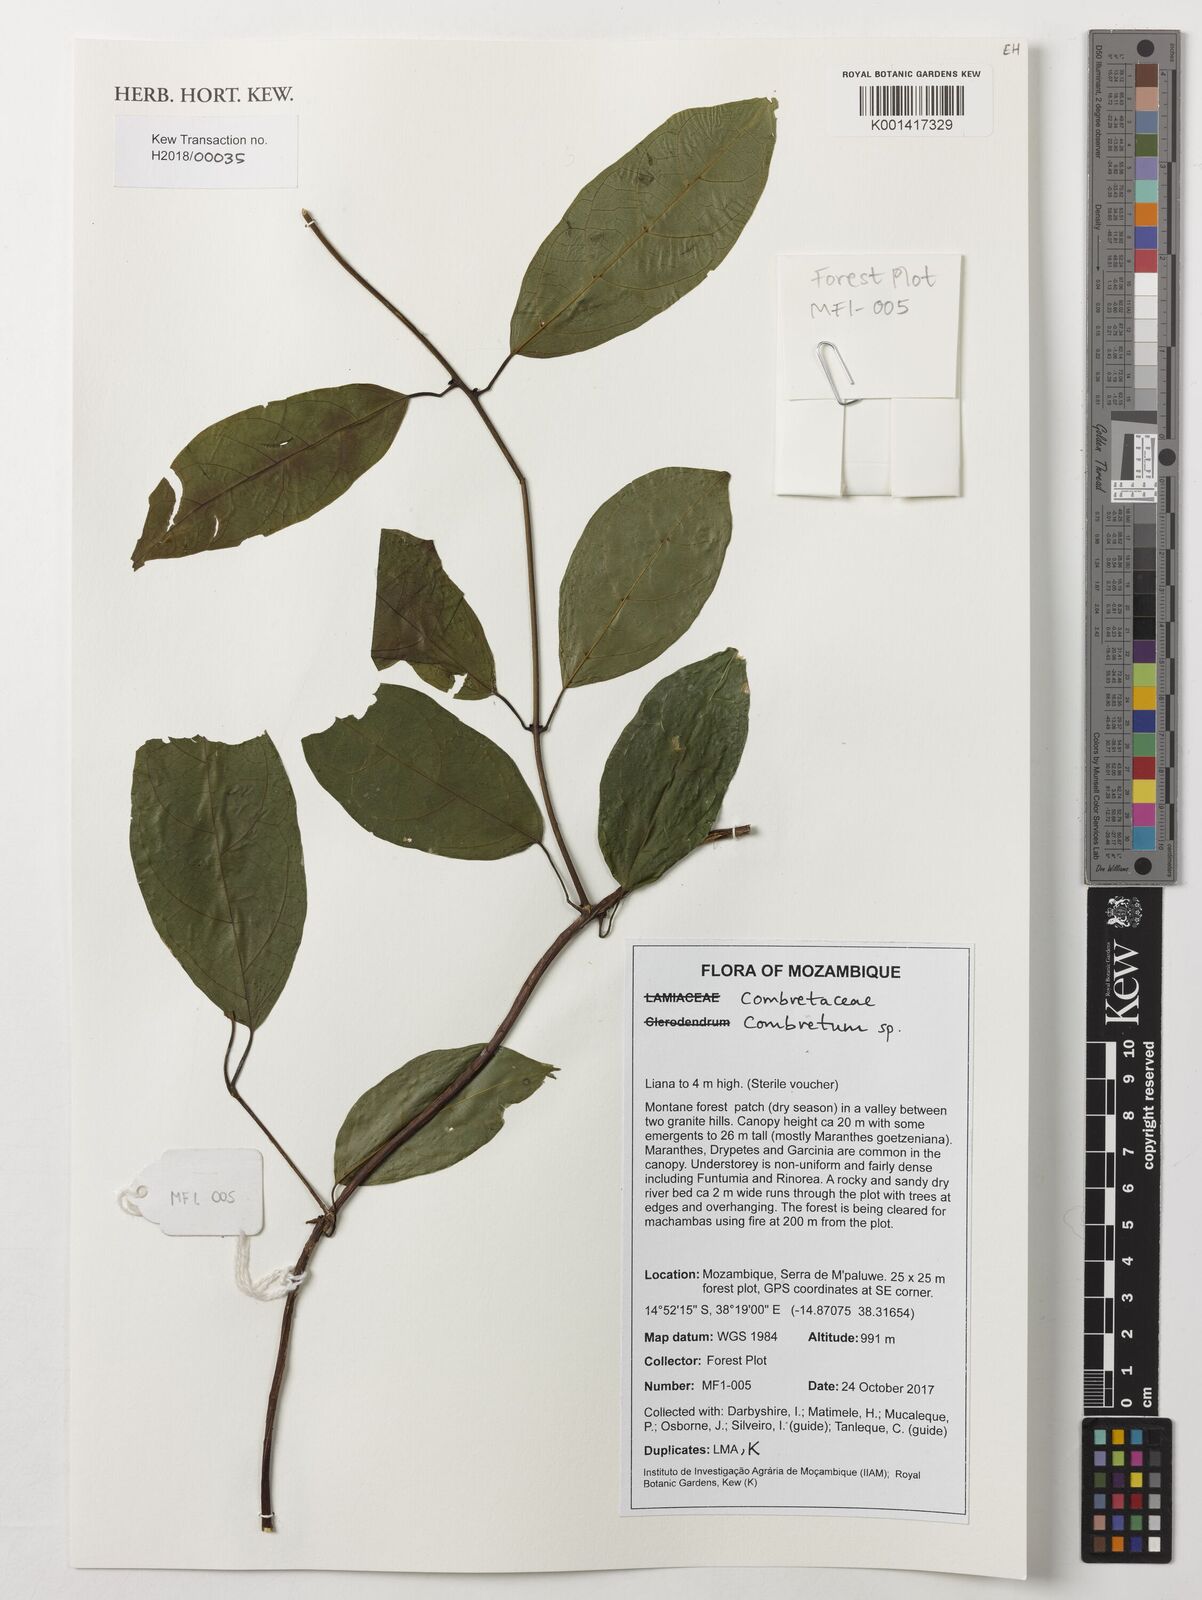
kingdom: Plantae
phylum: Tracheophyta
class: Magnoliopsida
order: Myrtales
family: Combretaceae
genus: Combretum
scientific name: Combretum
